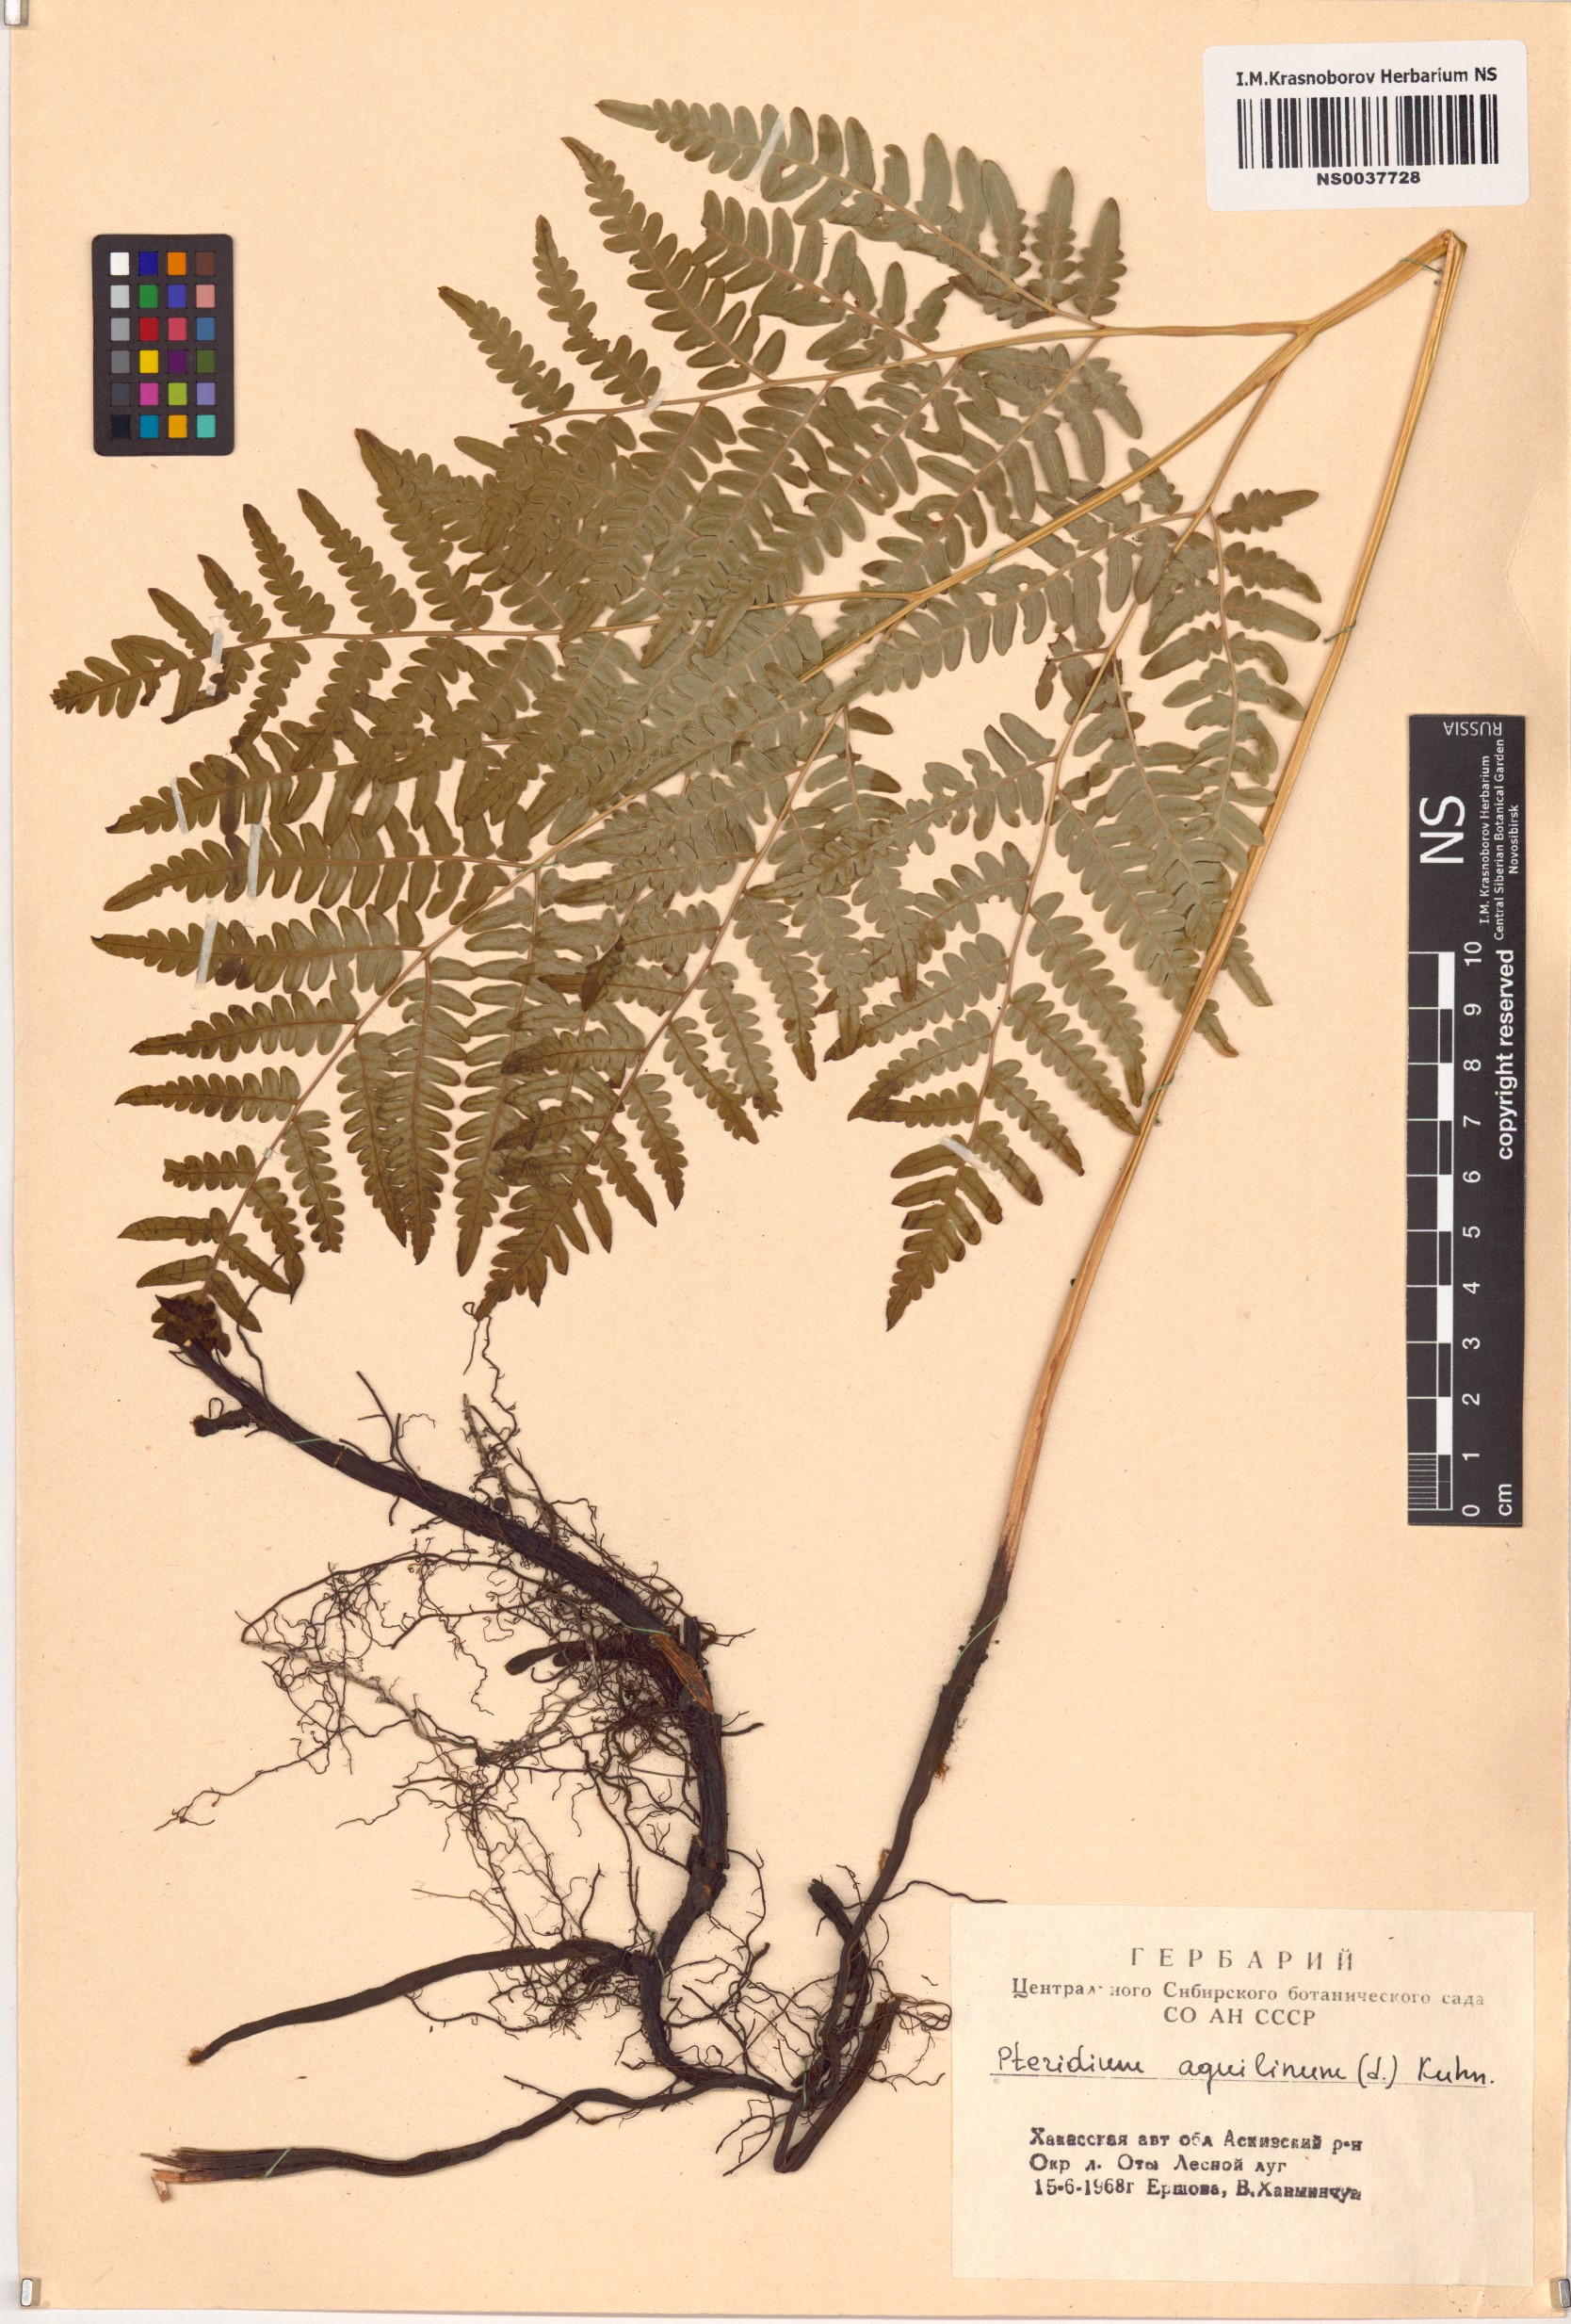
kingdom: Plantae
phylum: Tracheophyta
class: Polypodiopsida
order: Polypodiales
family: Dennstaedtiaceae
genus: Pteridium
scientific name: Pteridium aquilinum
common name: Bracken
